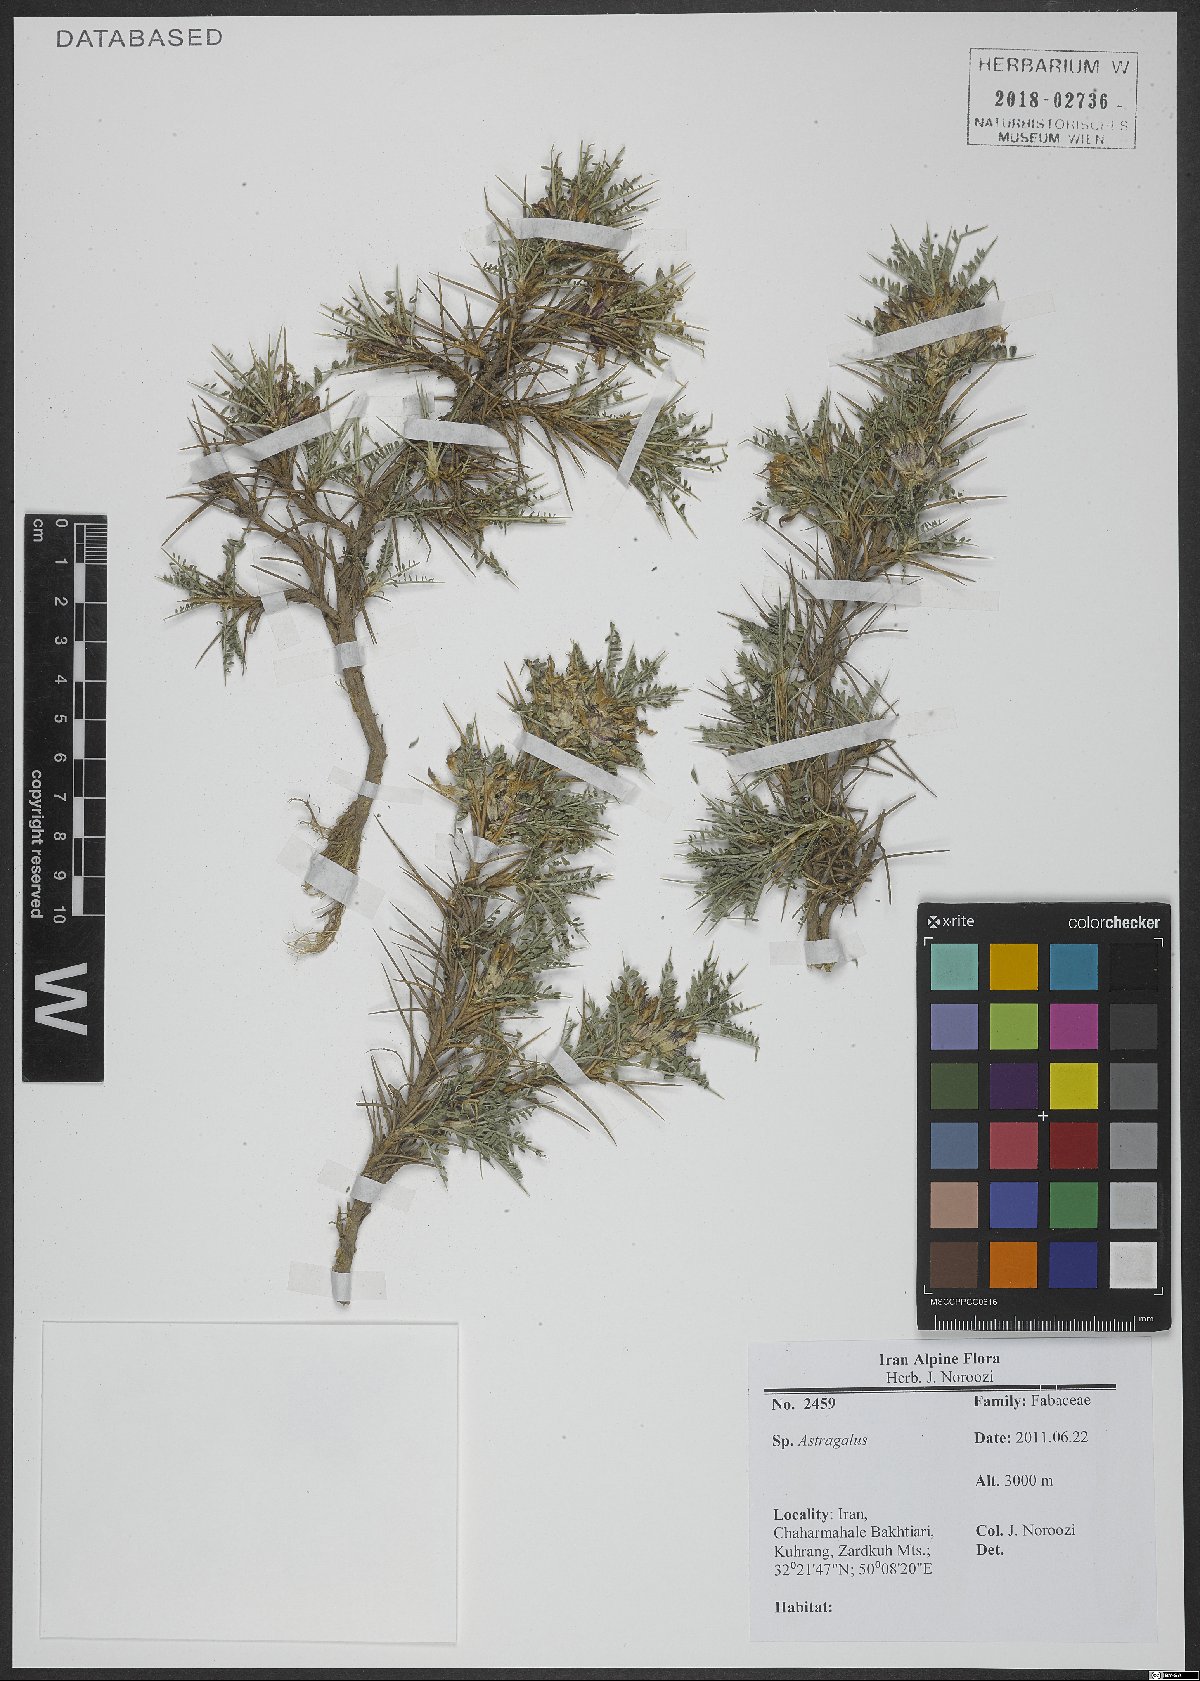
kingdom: Plantae
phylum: Tracheophyta
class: Magnoliopsida
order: Fabales
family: Fabaceae
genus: Astragalus
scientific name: Astragalus
